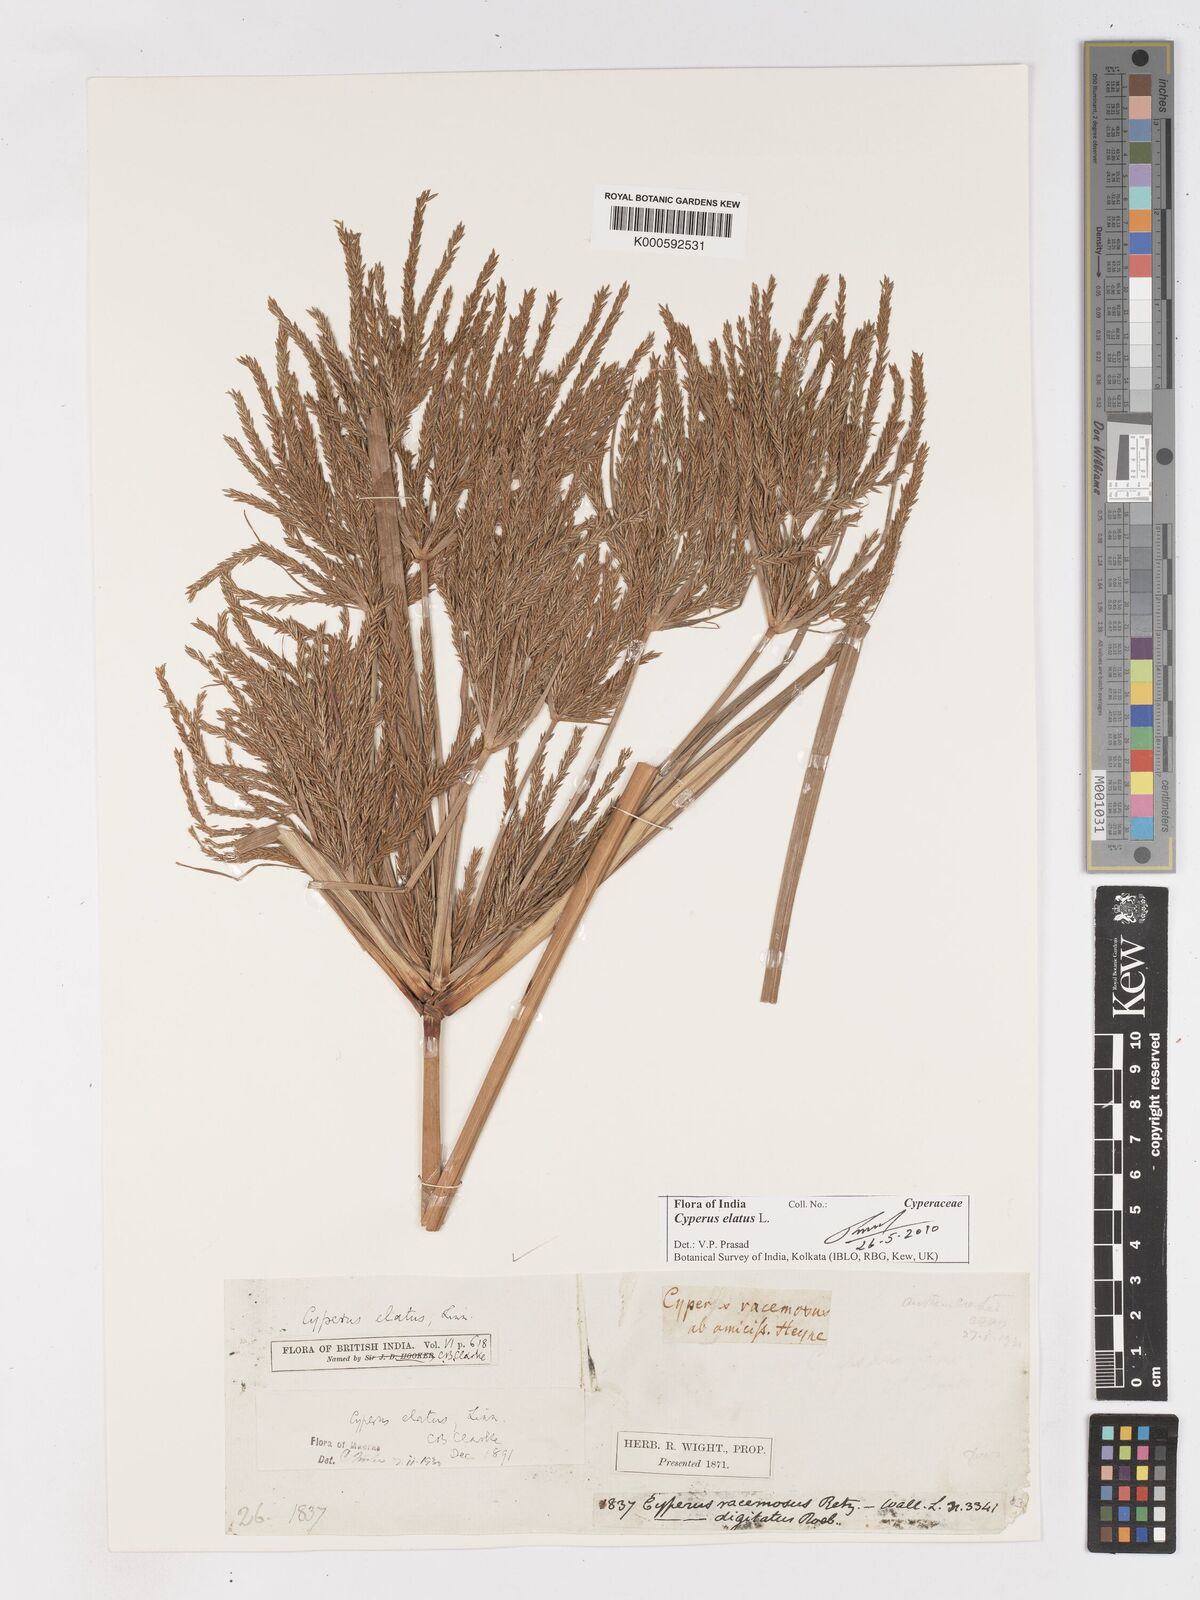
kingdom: Plantae
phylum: Tracheophyta
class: Liliopsida
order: Poales
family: Cyperaceae
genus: Cyperus
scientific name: Cyperus elatus
